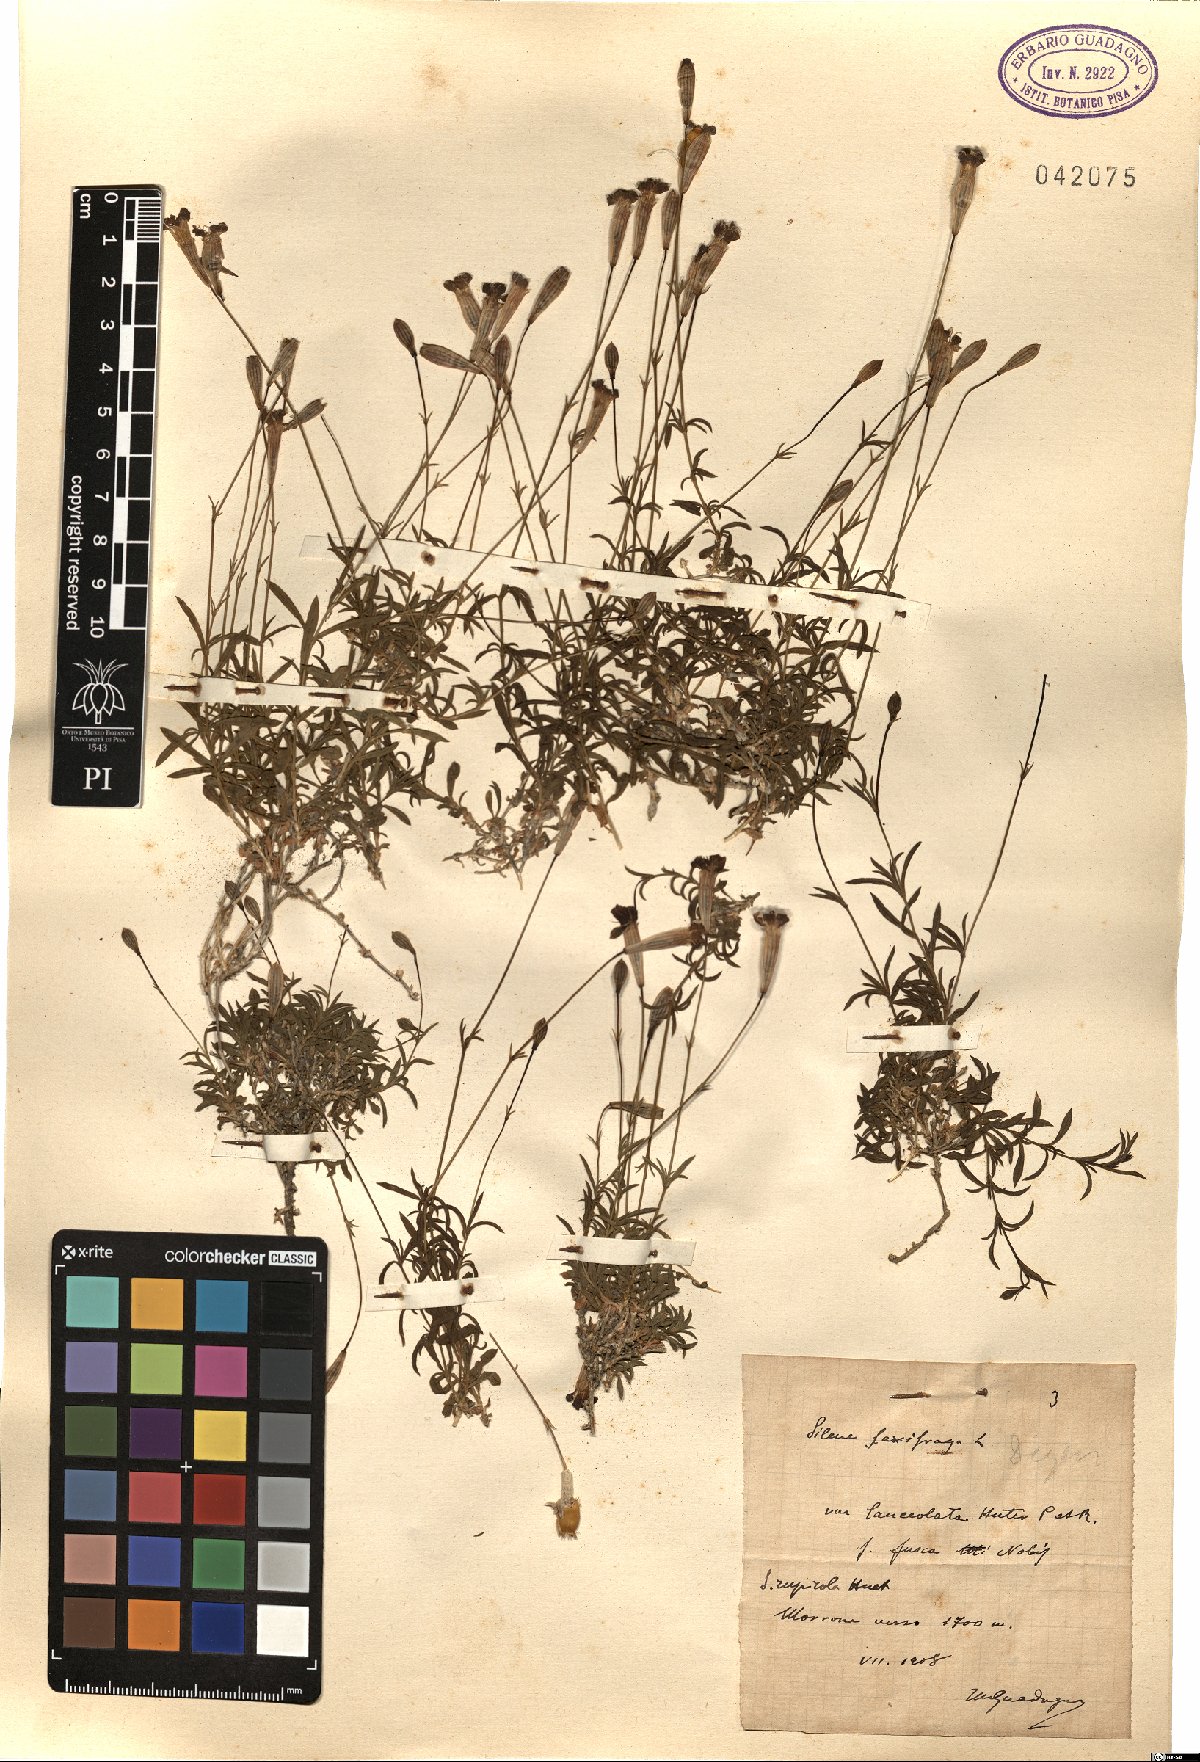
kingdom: Plantae
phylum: Tracheophyta
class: Magnoliopsida
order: Caryophyllales
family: Caryophyllaceae
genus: Silene
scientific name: Silene saxifraga
